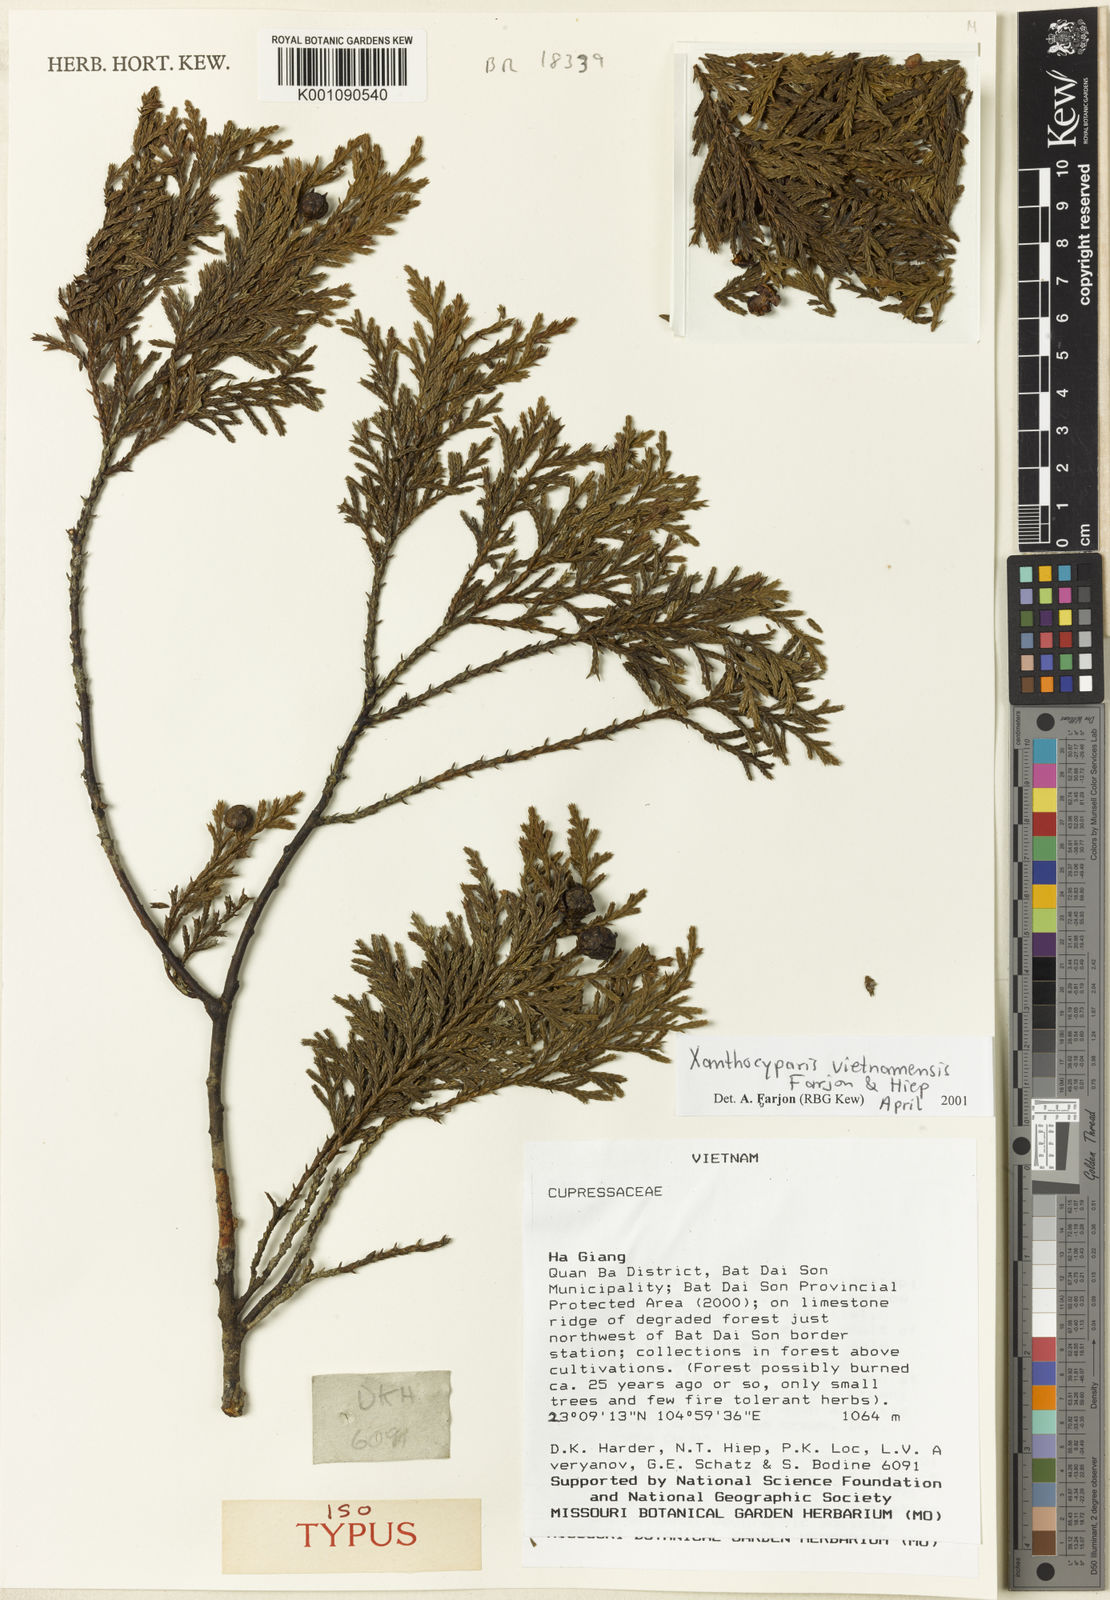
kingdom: Plantae
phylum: Tracheophyta
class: Pinopsida
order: Pinales
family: Cupressaceae
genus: Xanthocyparis
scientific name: Xanthocyparis
